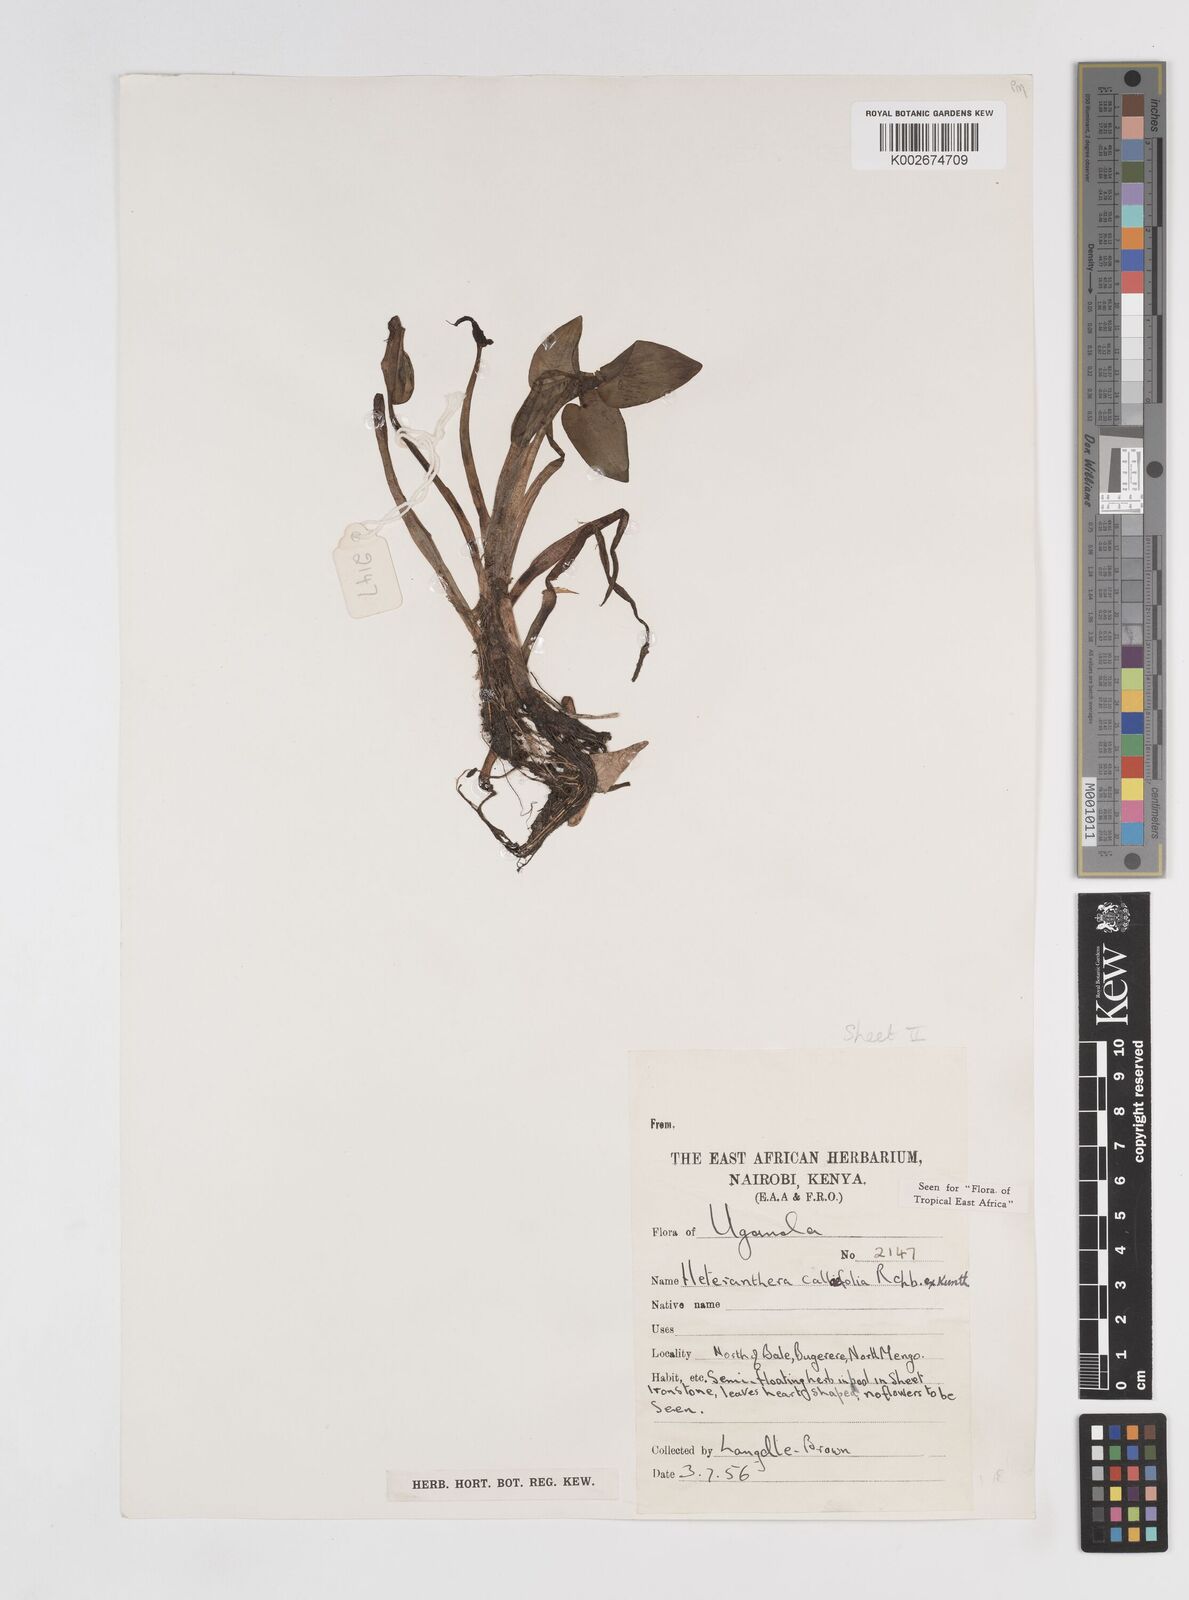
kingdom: Plantae
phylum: Tracheophyta
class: Liliopsida
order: Commelinales
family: Pontederiaceae
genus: Heteranthera
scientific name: Heteranthera callifolia
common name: Mud plantain
